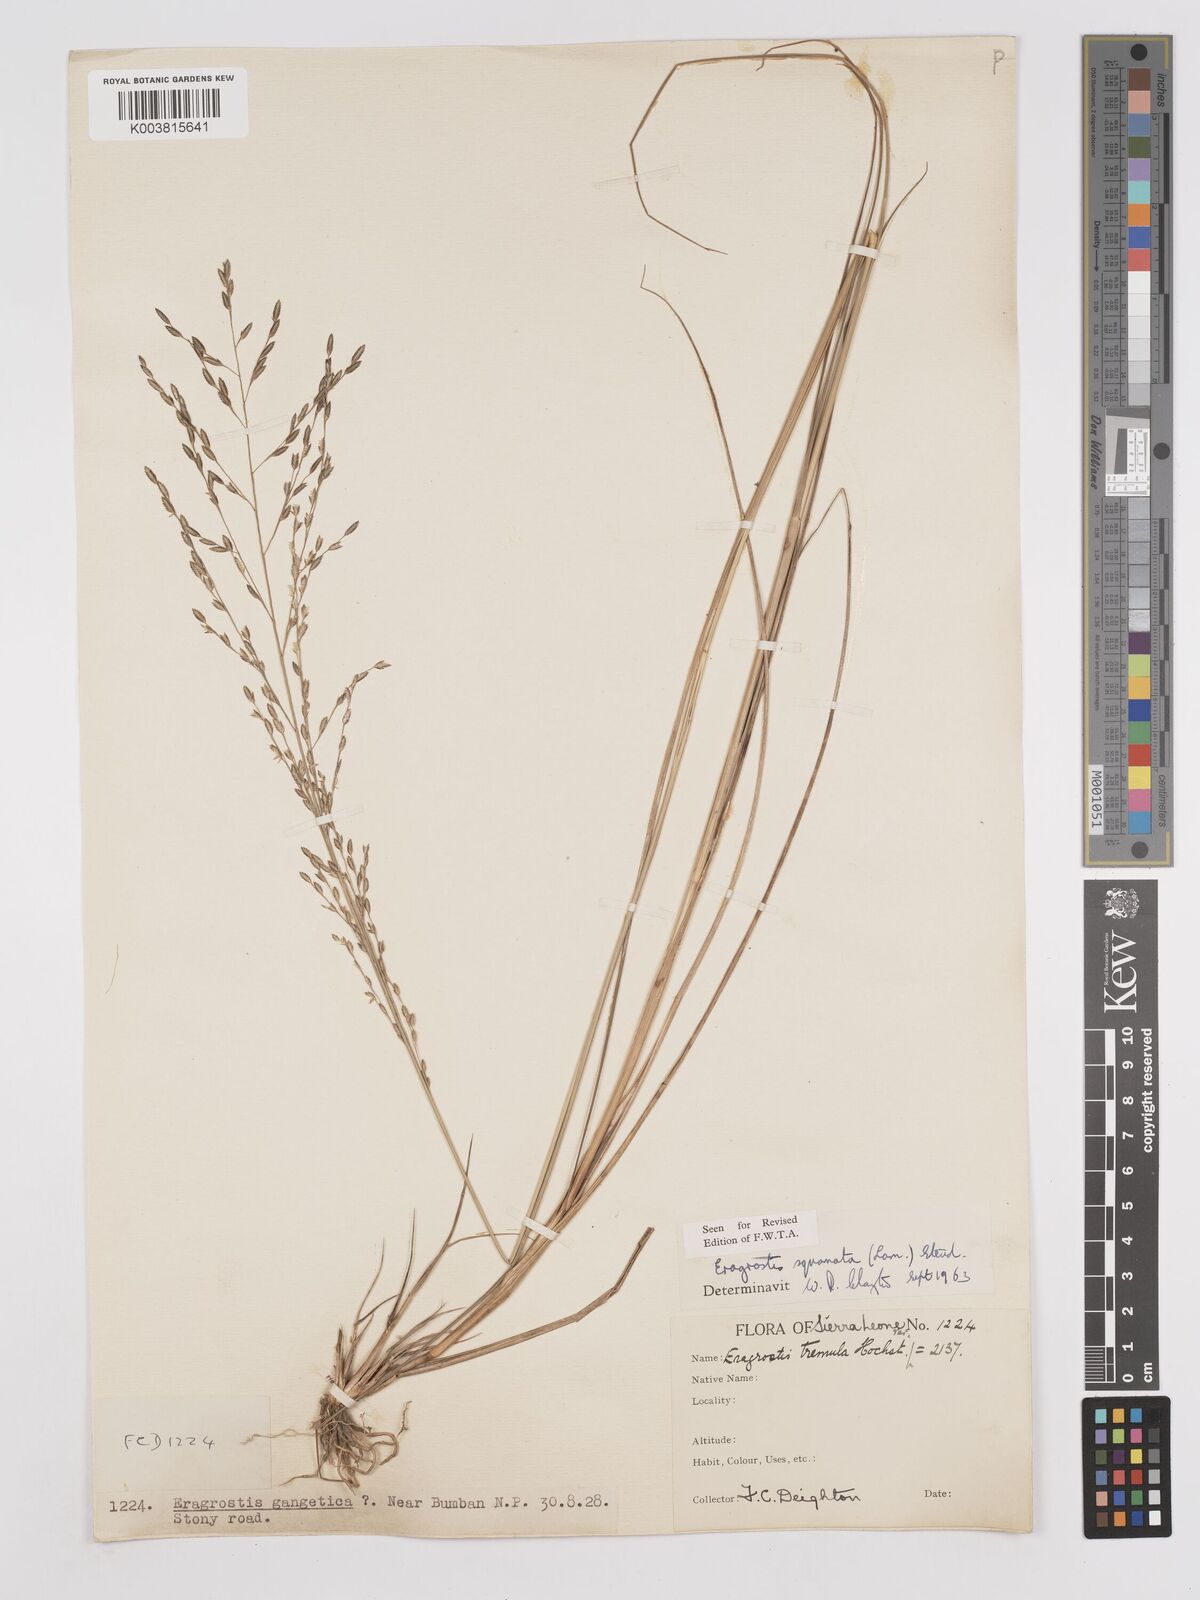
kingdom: Plantae
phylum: Tracheophyta
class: Liliopsida
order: Poales
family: Poaceae
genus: Eragrostis
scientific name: Eragrostis squamata
